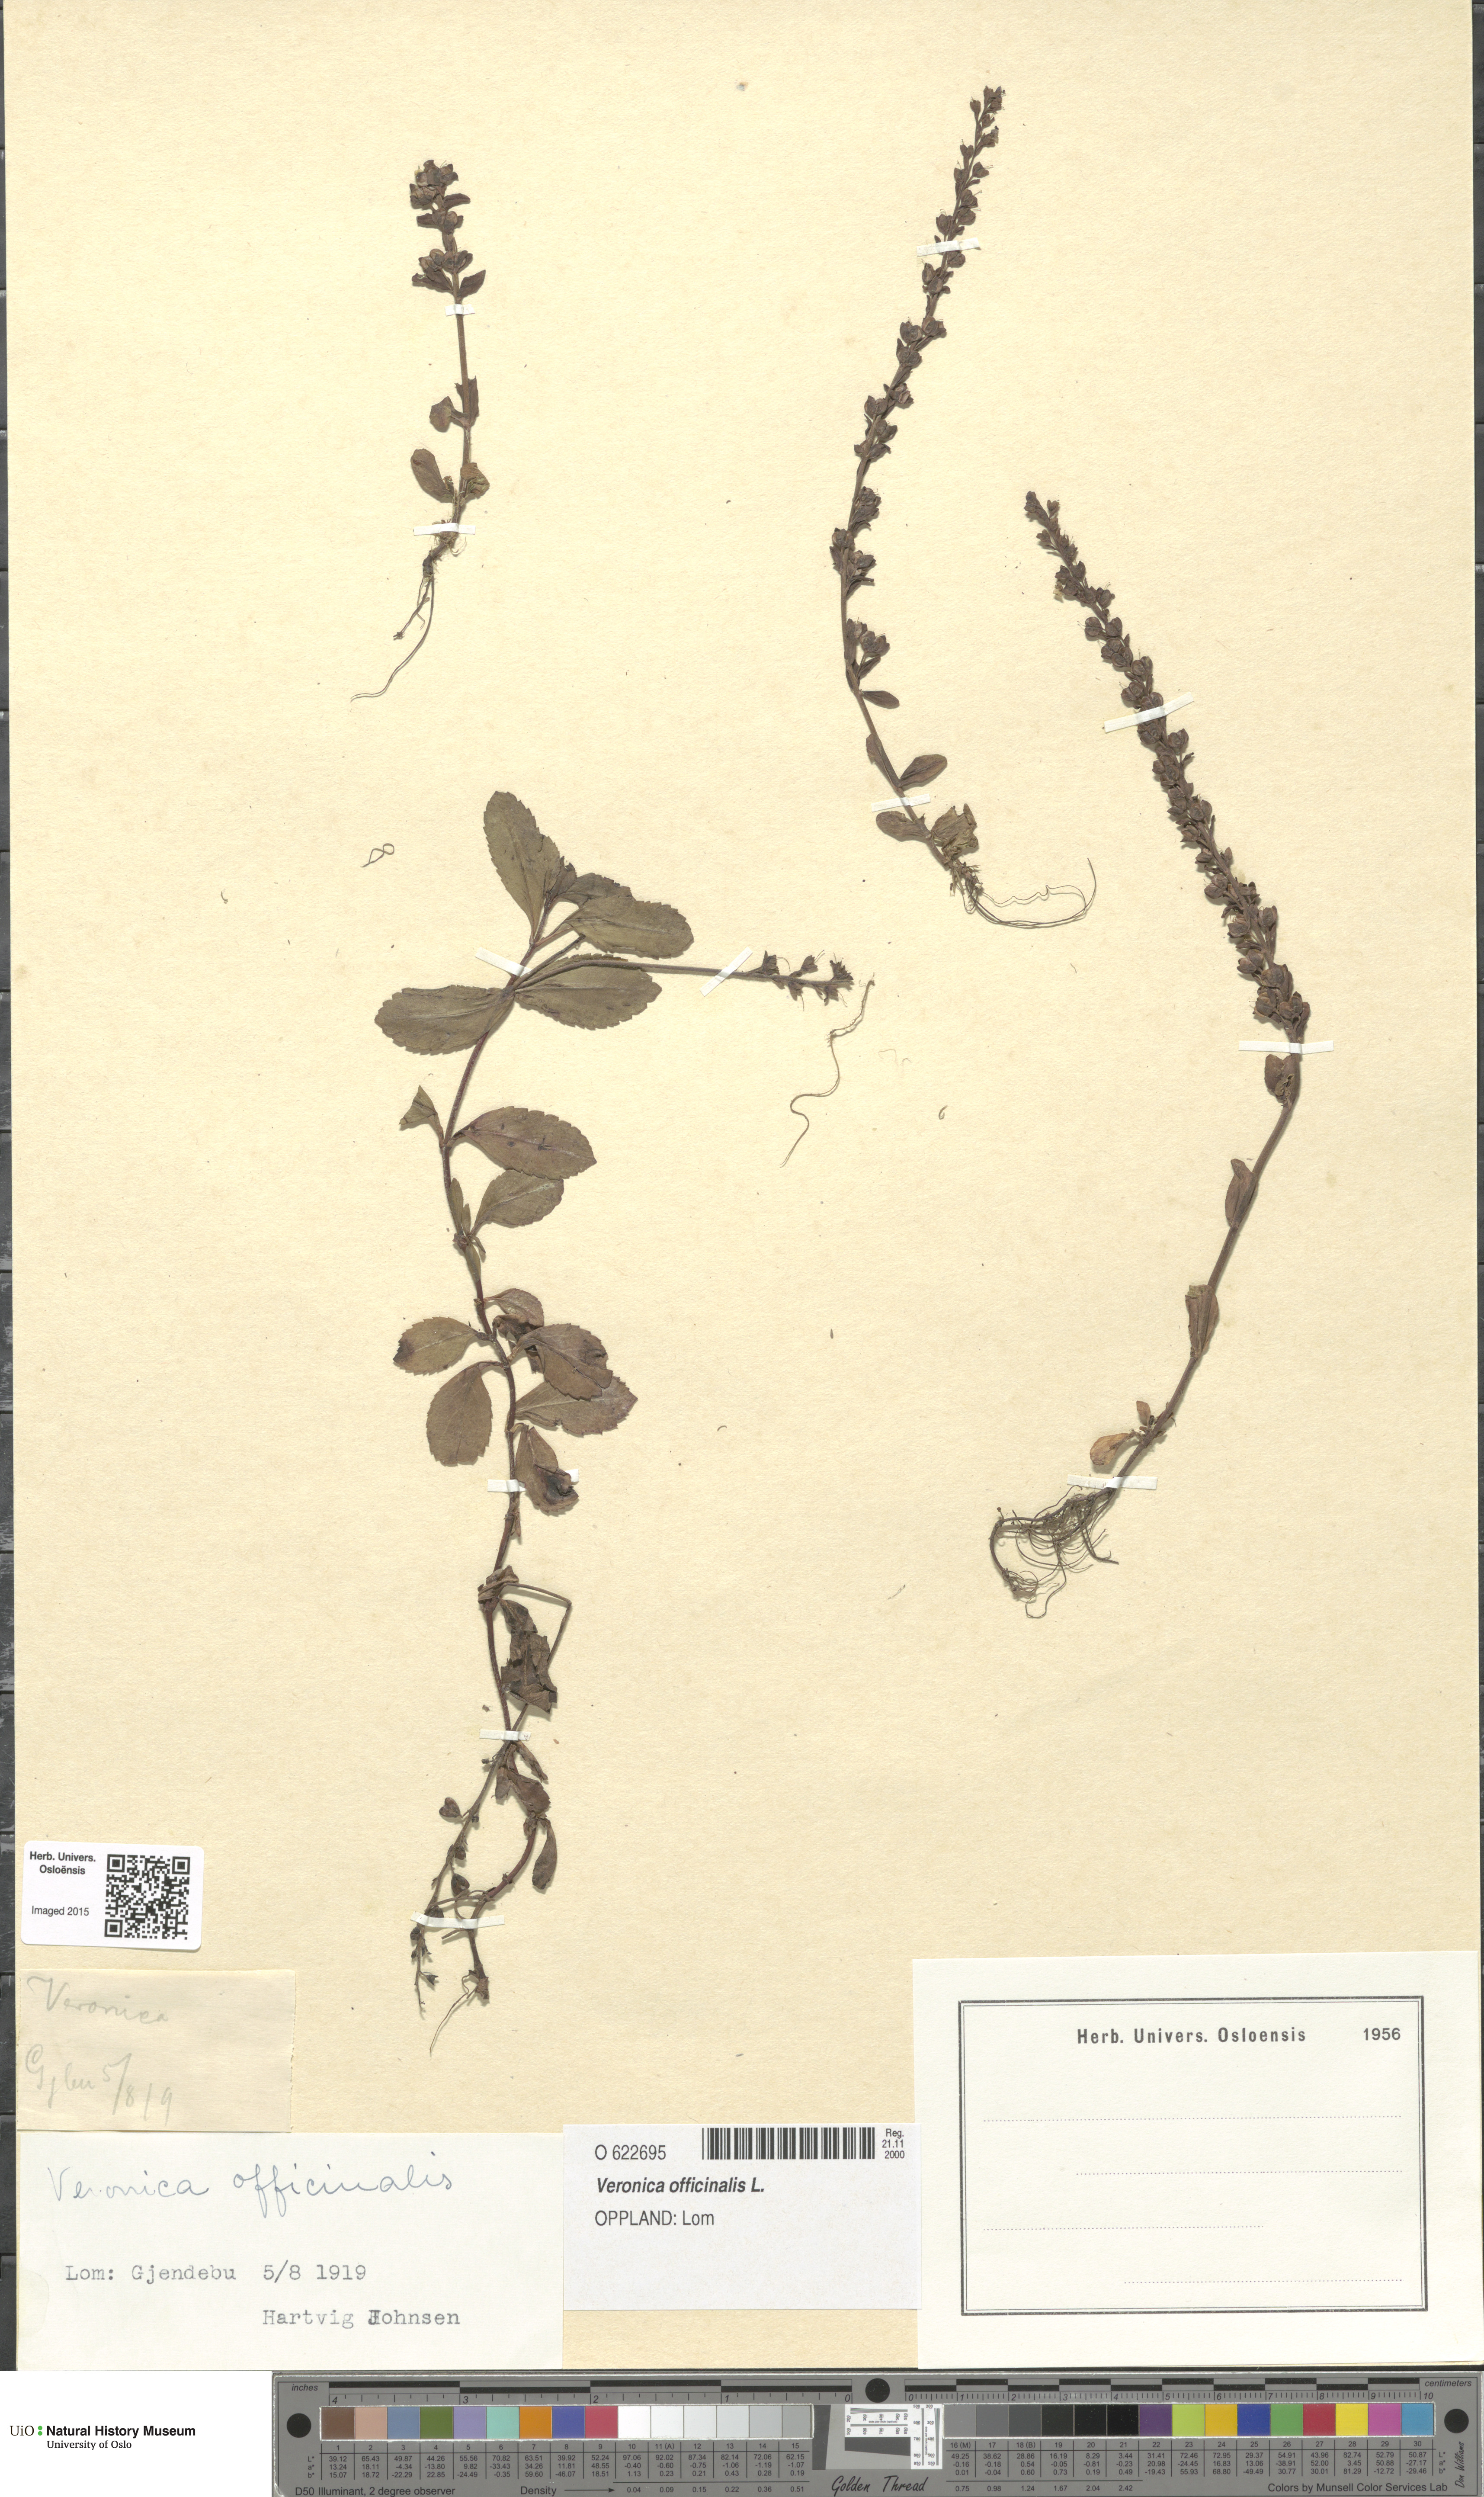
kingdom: Plantae
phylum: Tracheophyta
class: Magnoliopsida
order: Lamiales
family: Plantaginaceae
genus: Veronica
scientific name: Veronica officinalis
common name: Common speedwell
